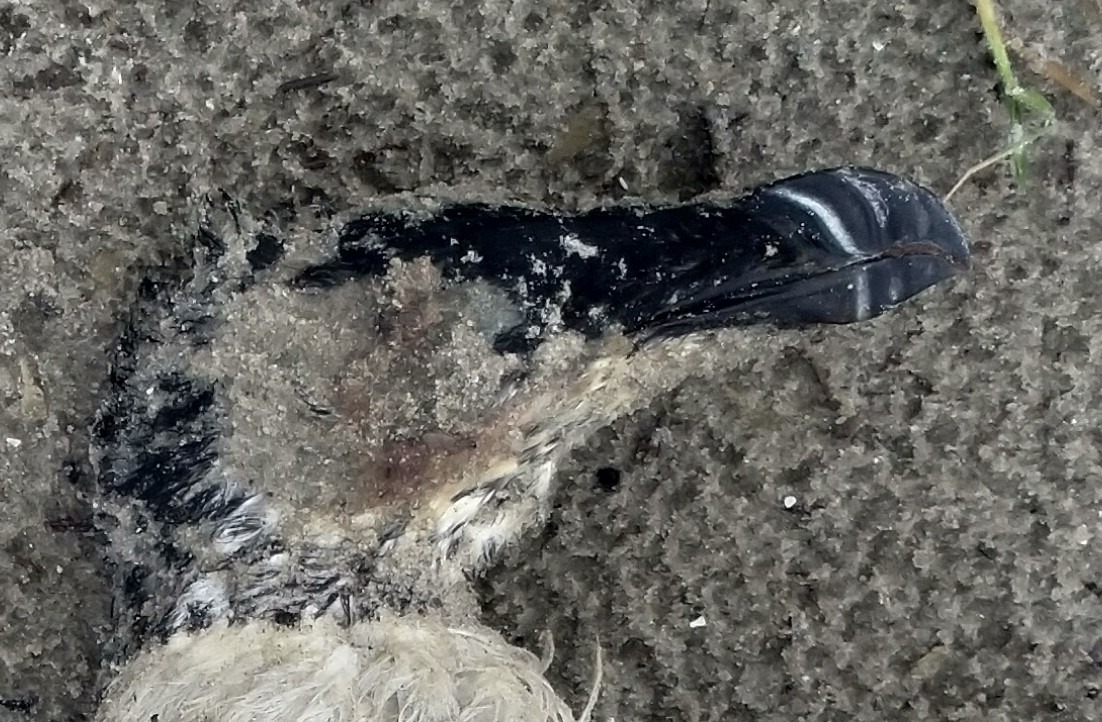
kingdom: Animalia
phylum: Chordata
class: Aves
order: Charadriiformes
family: Alcidae
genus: Alca
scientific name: Alca torda
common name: Alk
